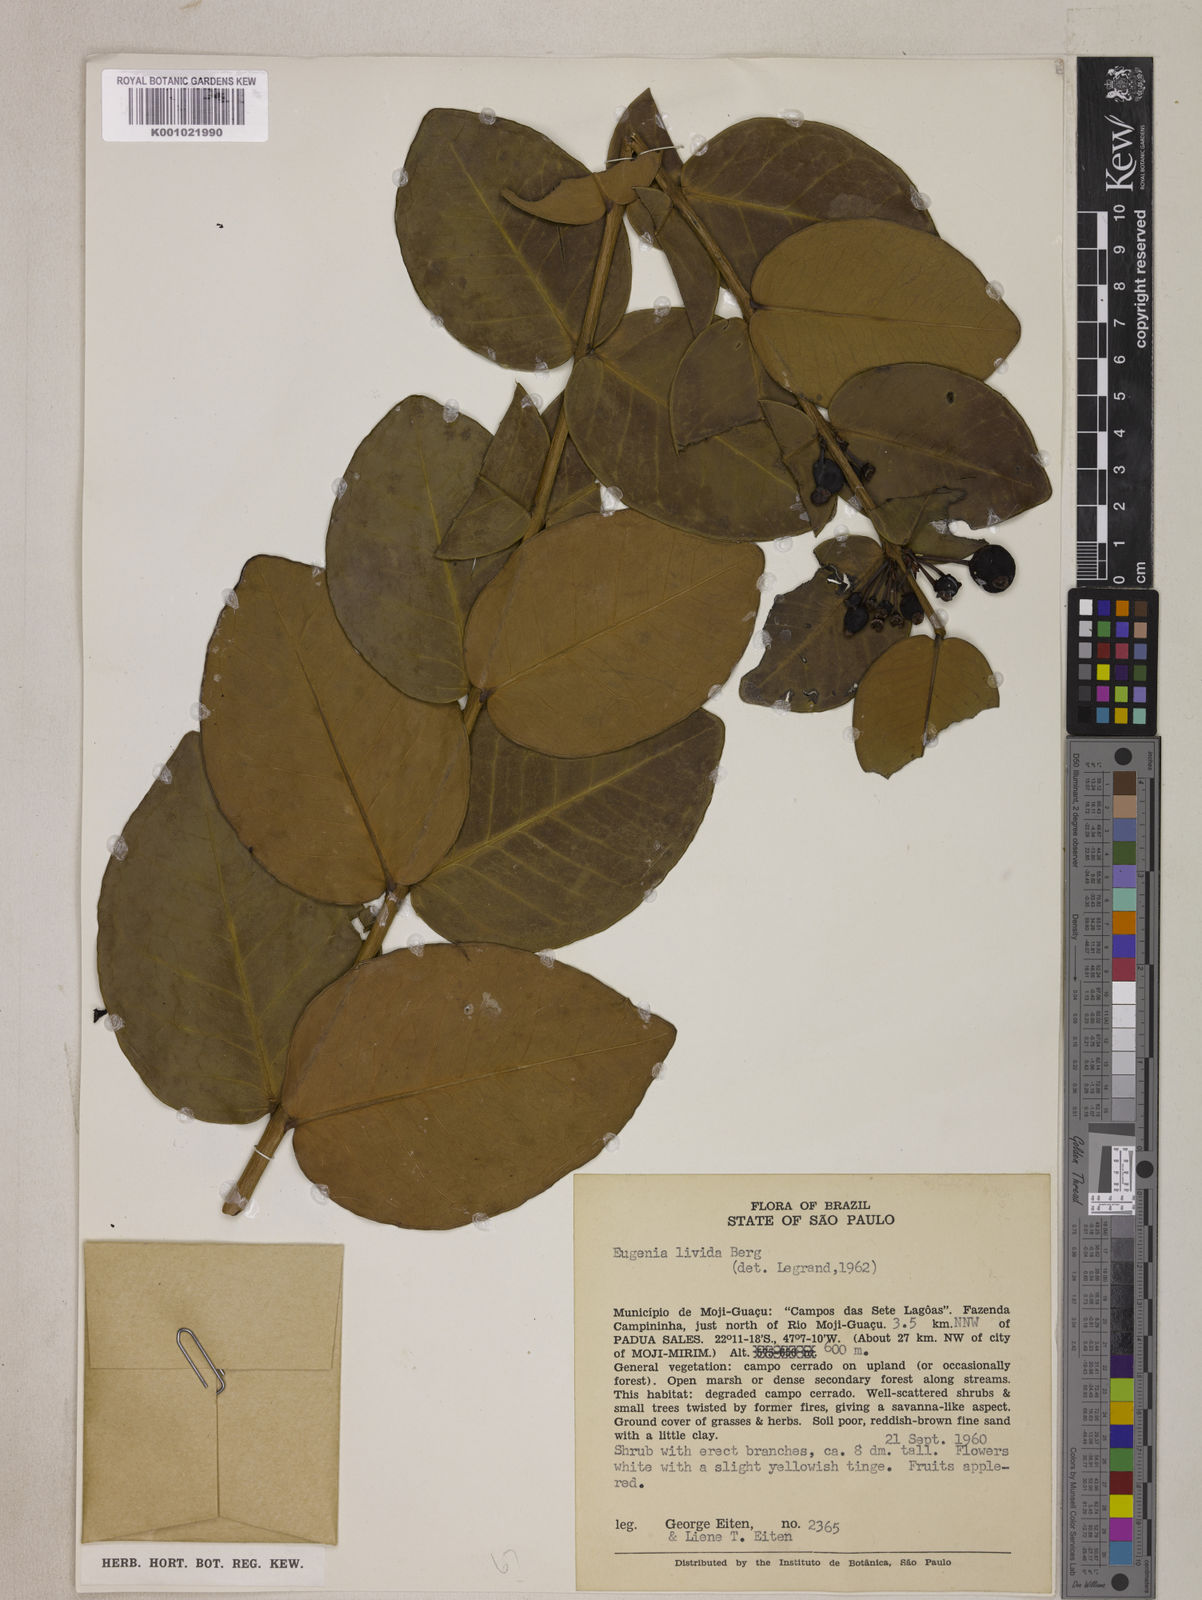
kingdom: Plantae
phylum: Tracheophyta
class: Magnoliopsida
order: Myrtales
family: Myrtaceae
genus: Eugenia
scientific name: Eugenia livida
